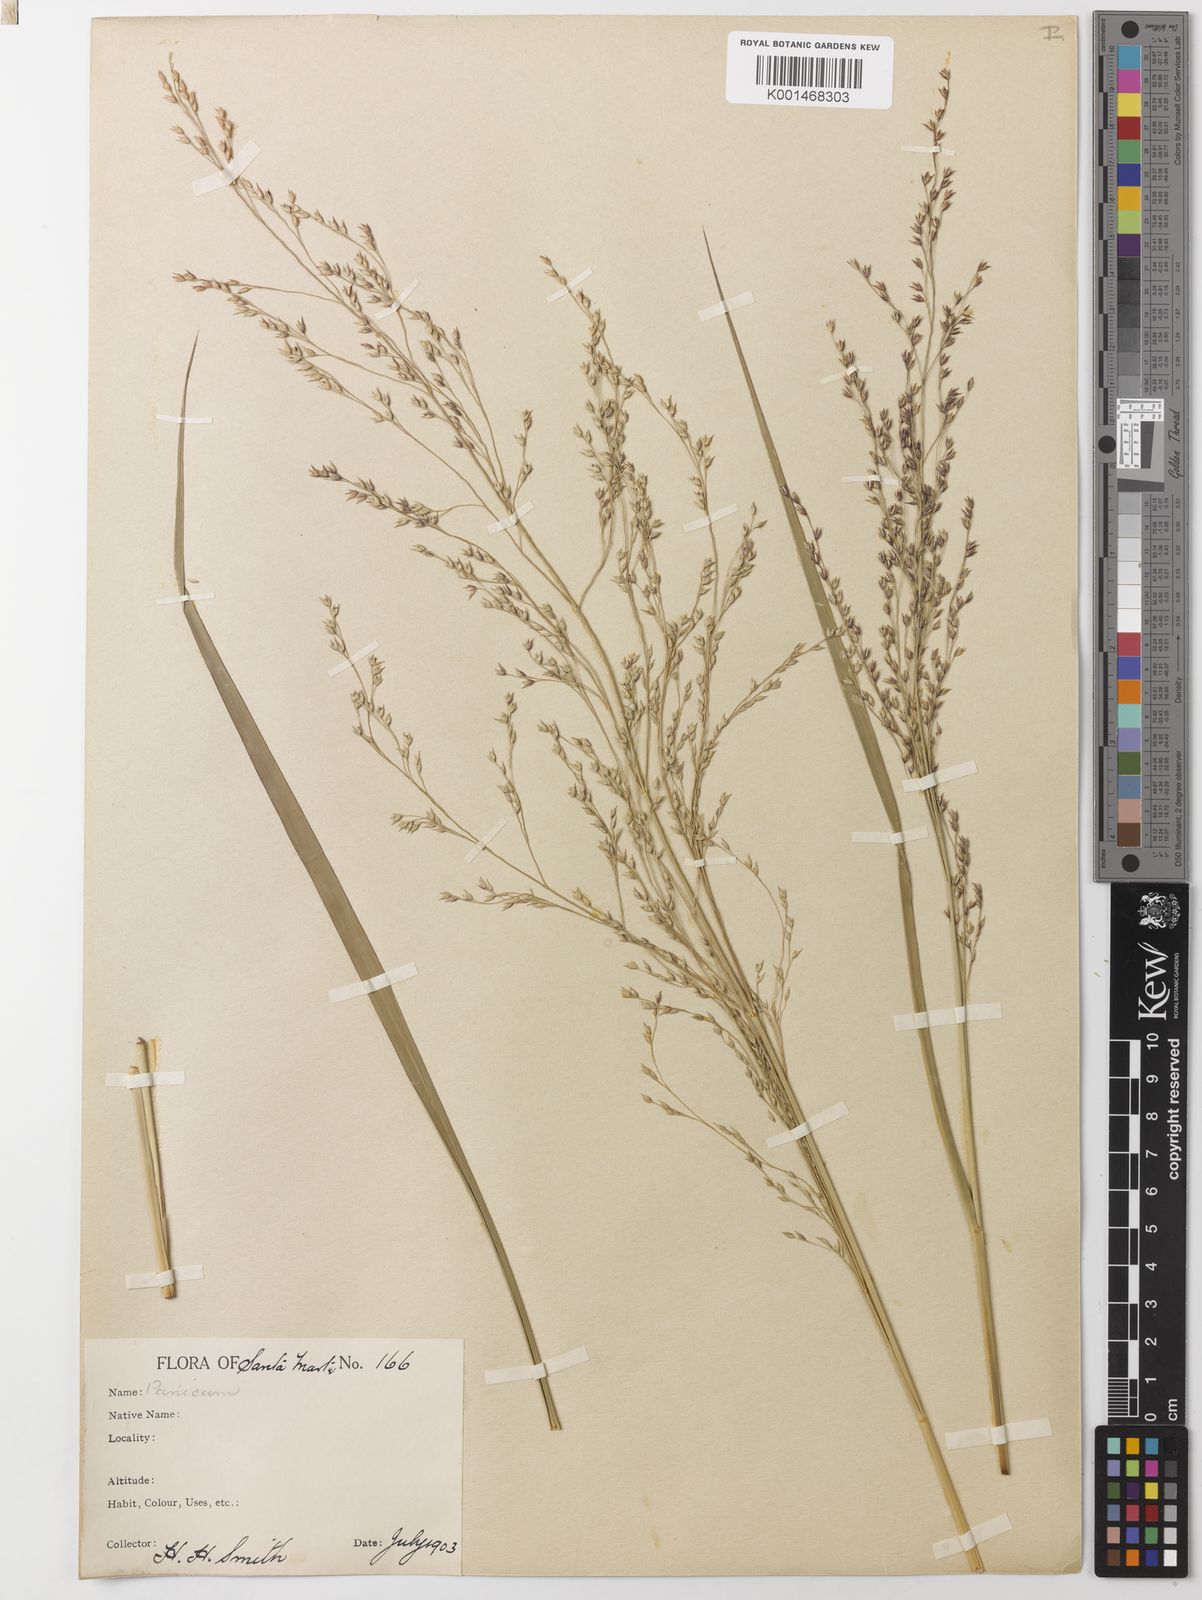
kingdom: Plantae
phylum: Tracheophyta
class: Liliopsida
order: Poales
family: Poaceae
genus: Panicum
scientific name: Panicum altum
